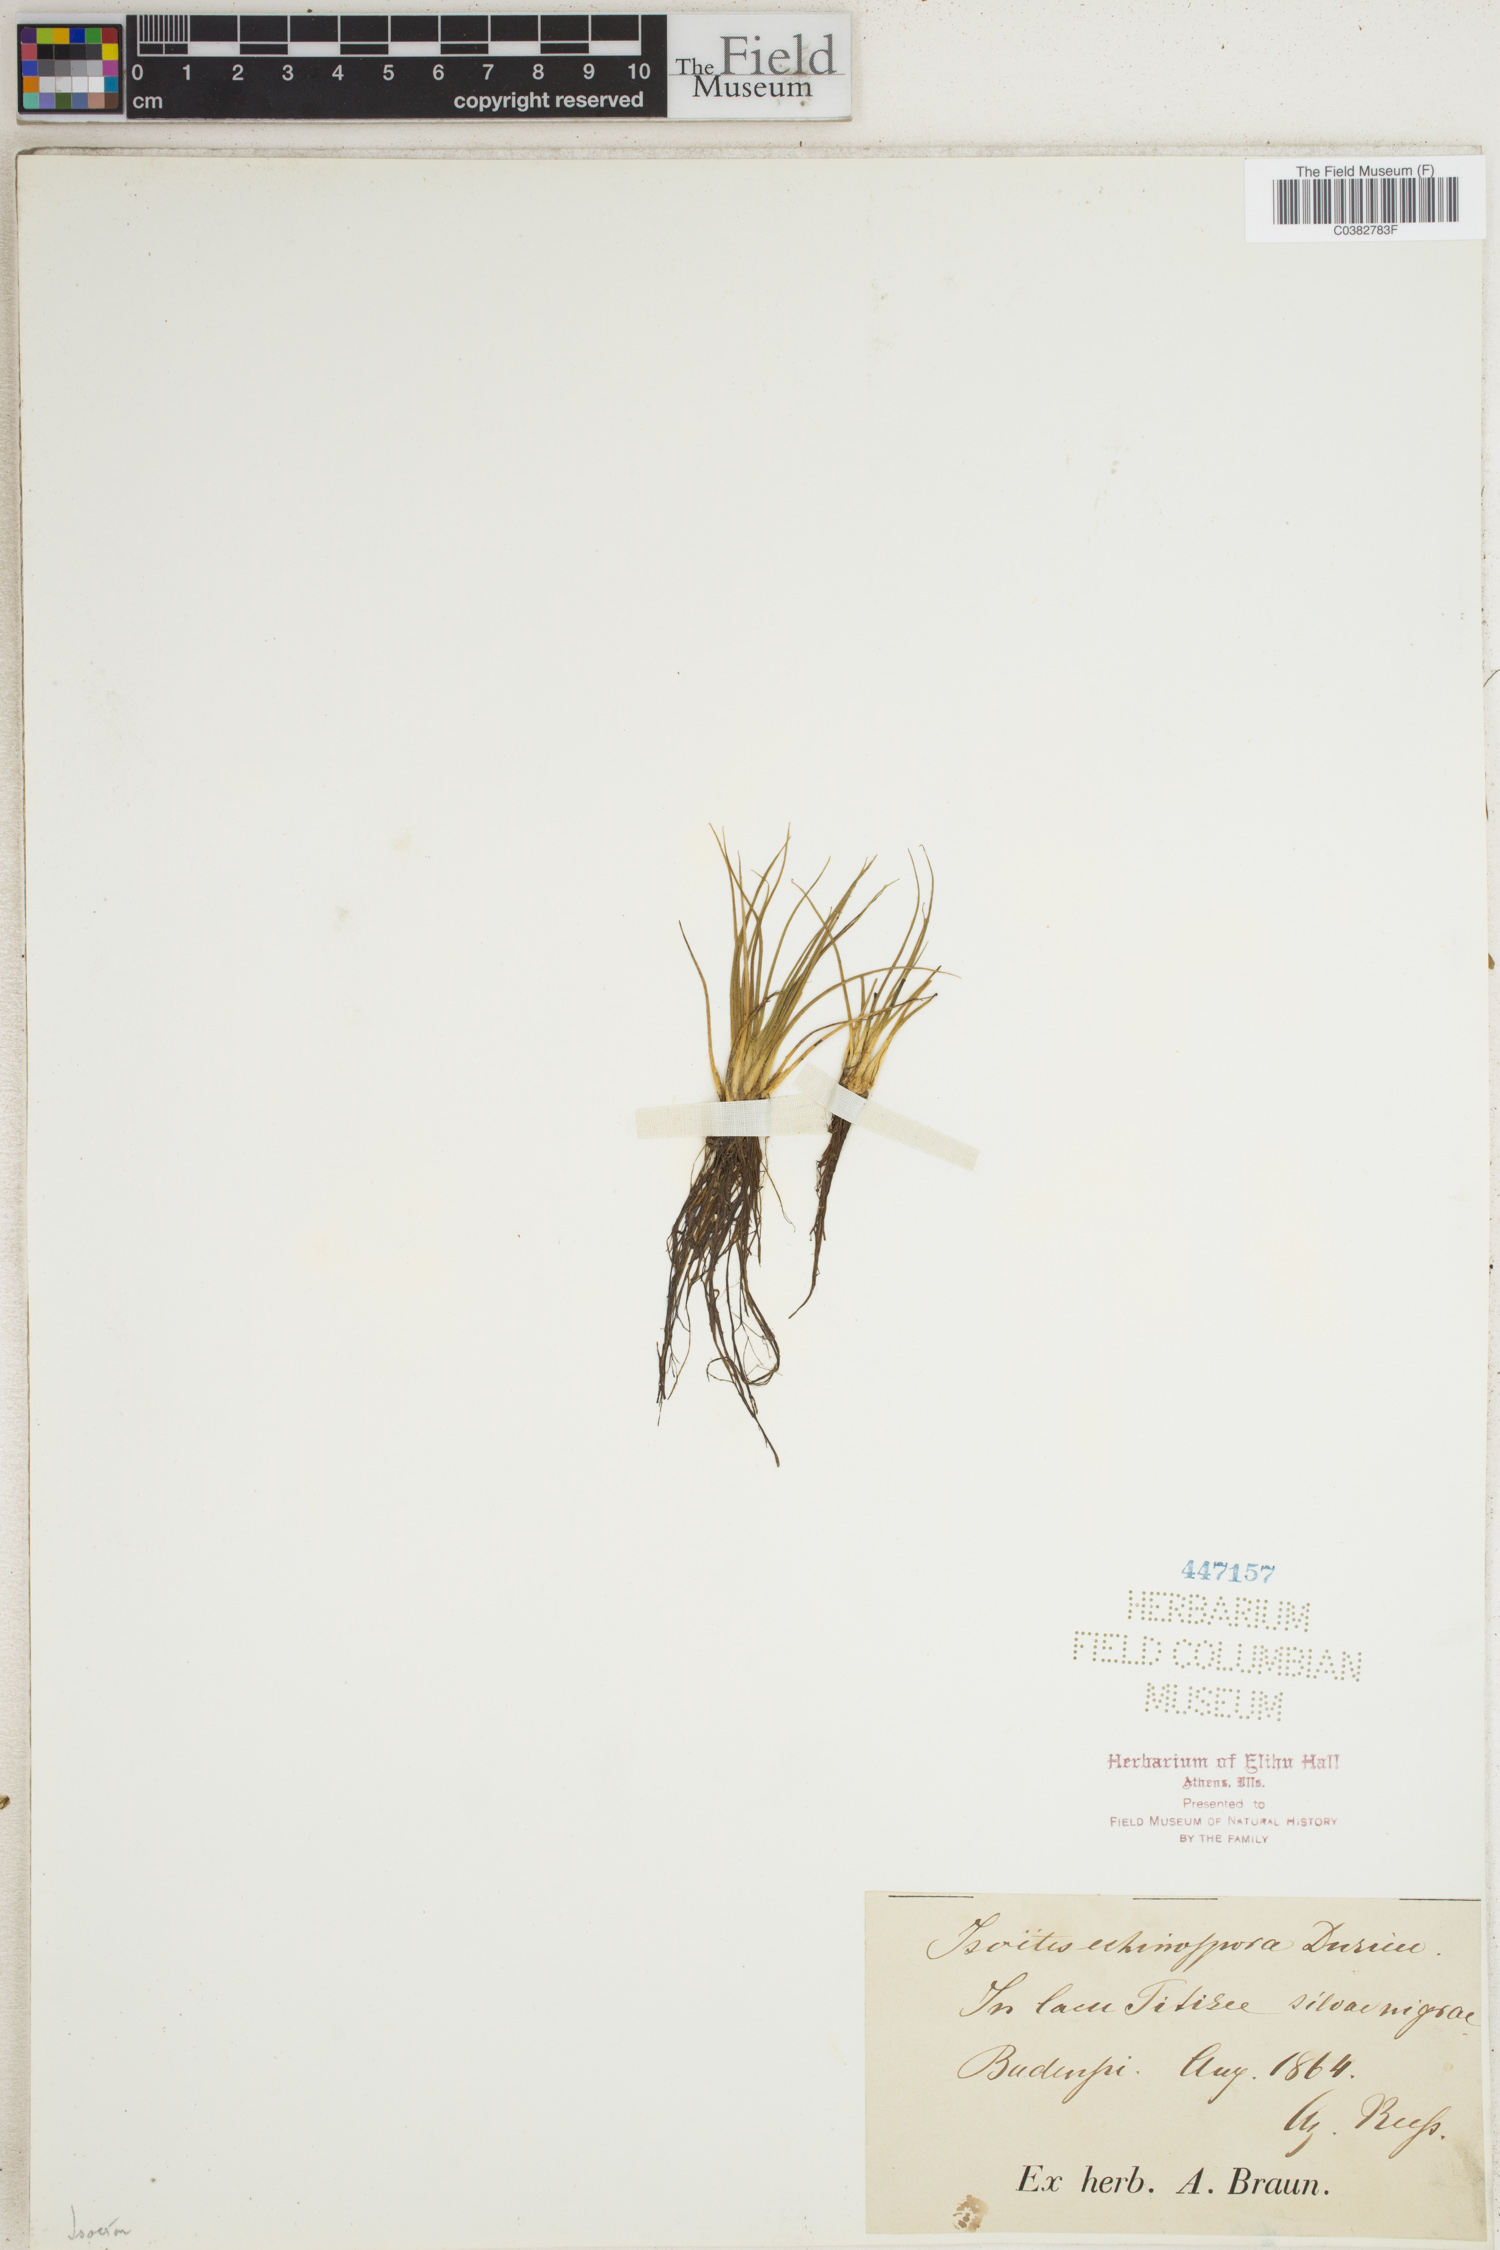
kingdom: Plantae
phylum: Tracheophyta
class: Lycopodiopsida
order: Isoetales
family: Isoetaceae
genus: Isoetes
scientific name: Isoetes echinospora
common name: Spring quillwort
